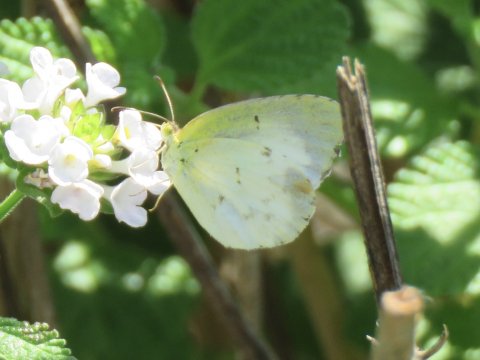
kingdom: Animalia
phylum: Arthropoda
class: Insecta
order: Lepidoptera
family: Pieridae
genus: Pyrisitia
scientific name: Pyrisitia lisa
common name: Little Yellow
